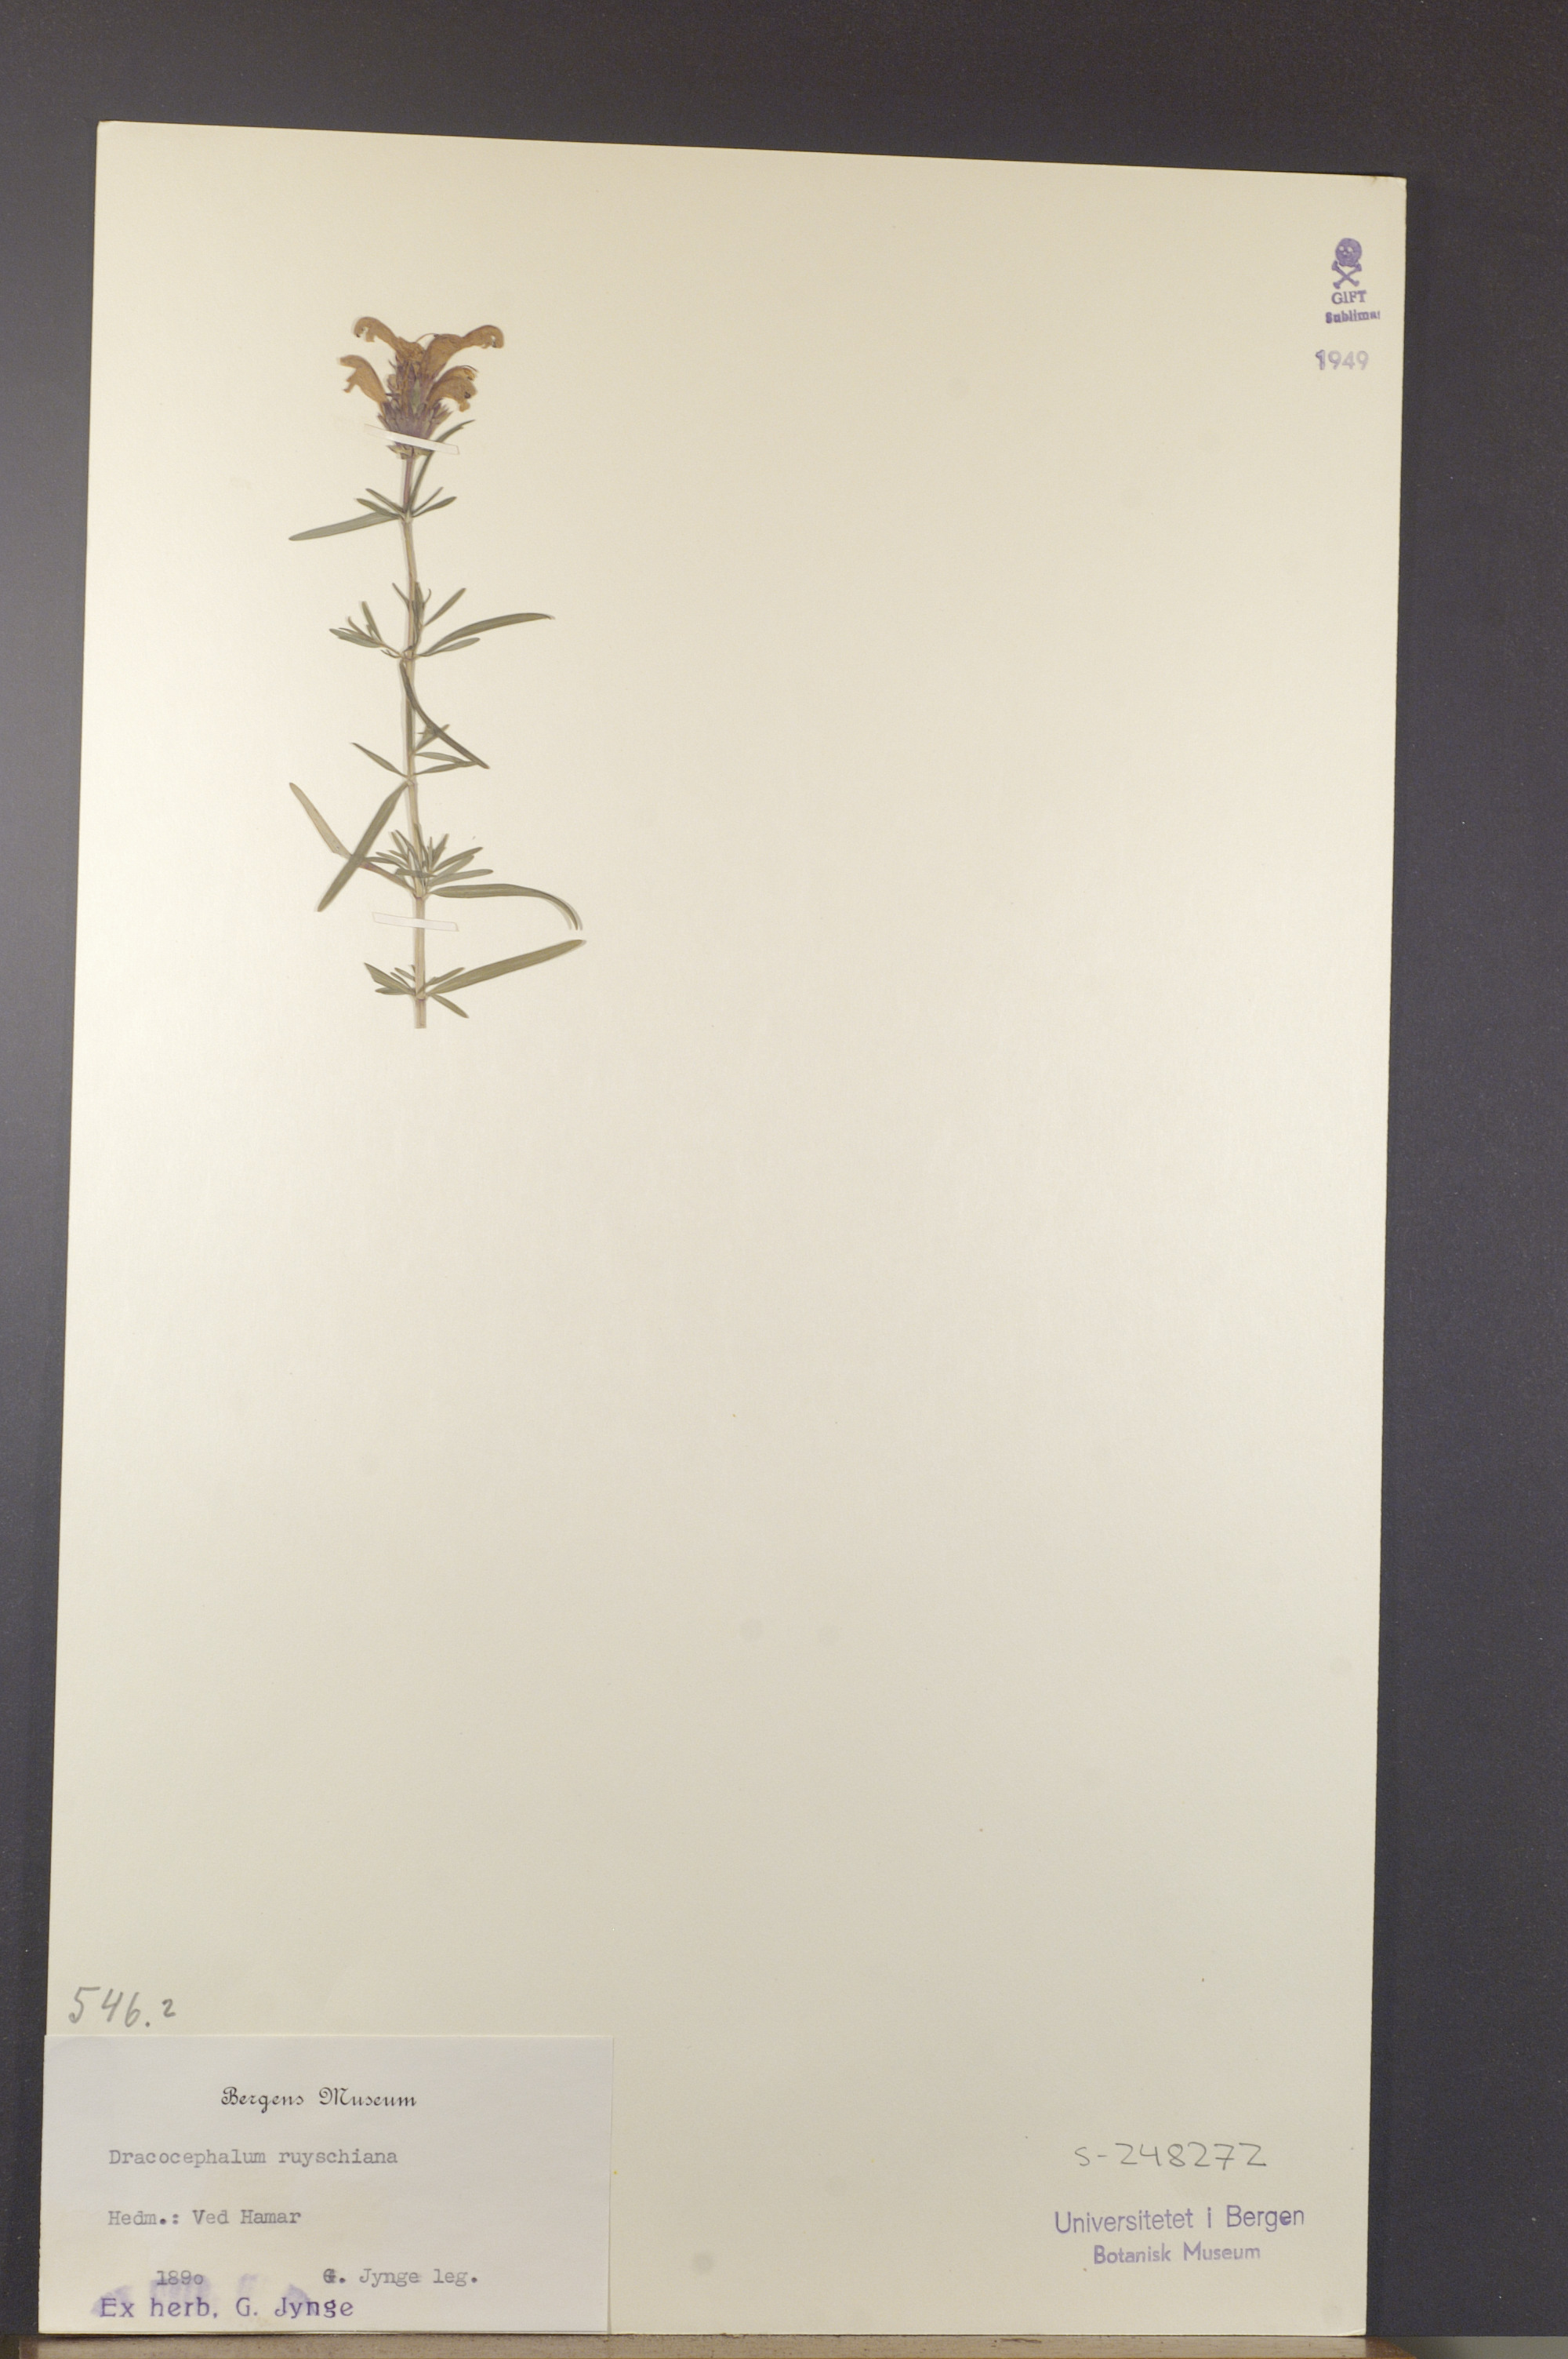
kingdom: Plantae
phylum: Tracheophyta
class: Magnoliopsida
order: Lamiales
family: Lamiaceae
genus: Dracocephalum
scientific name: Dracocephalum ruyschiana
